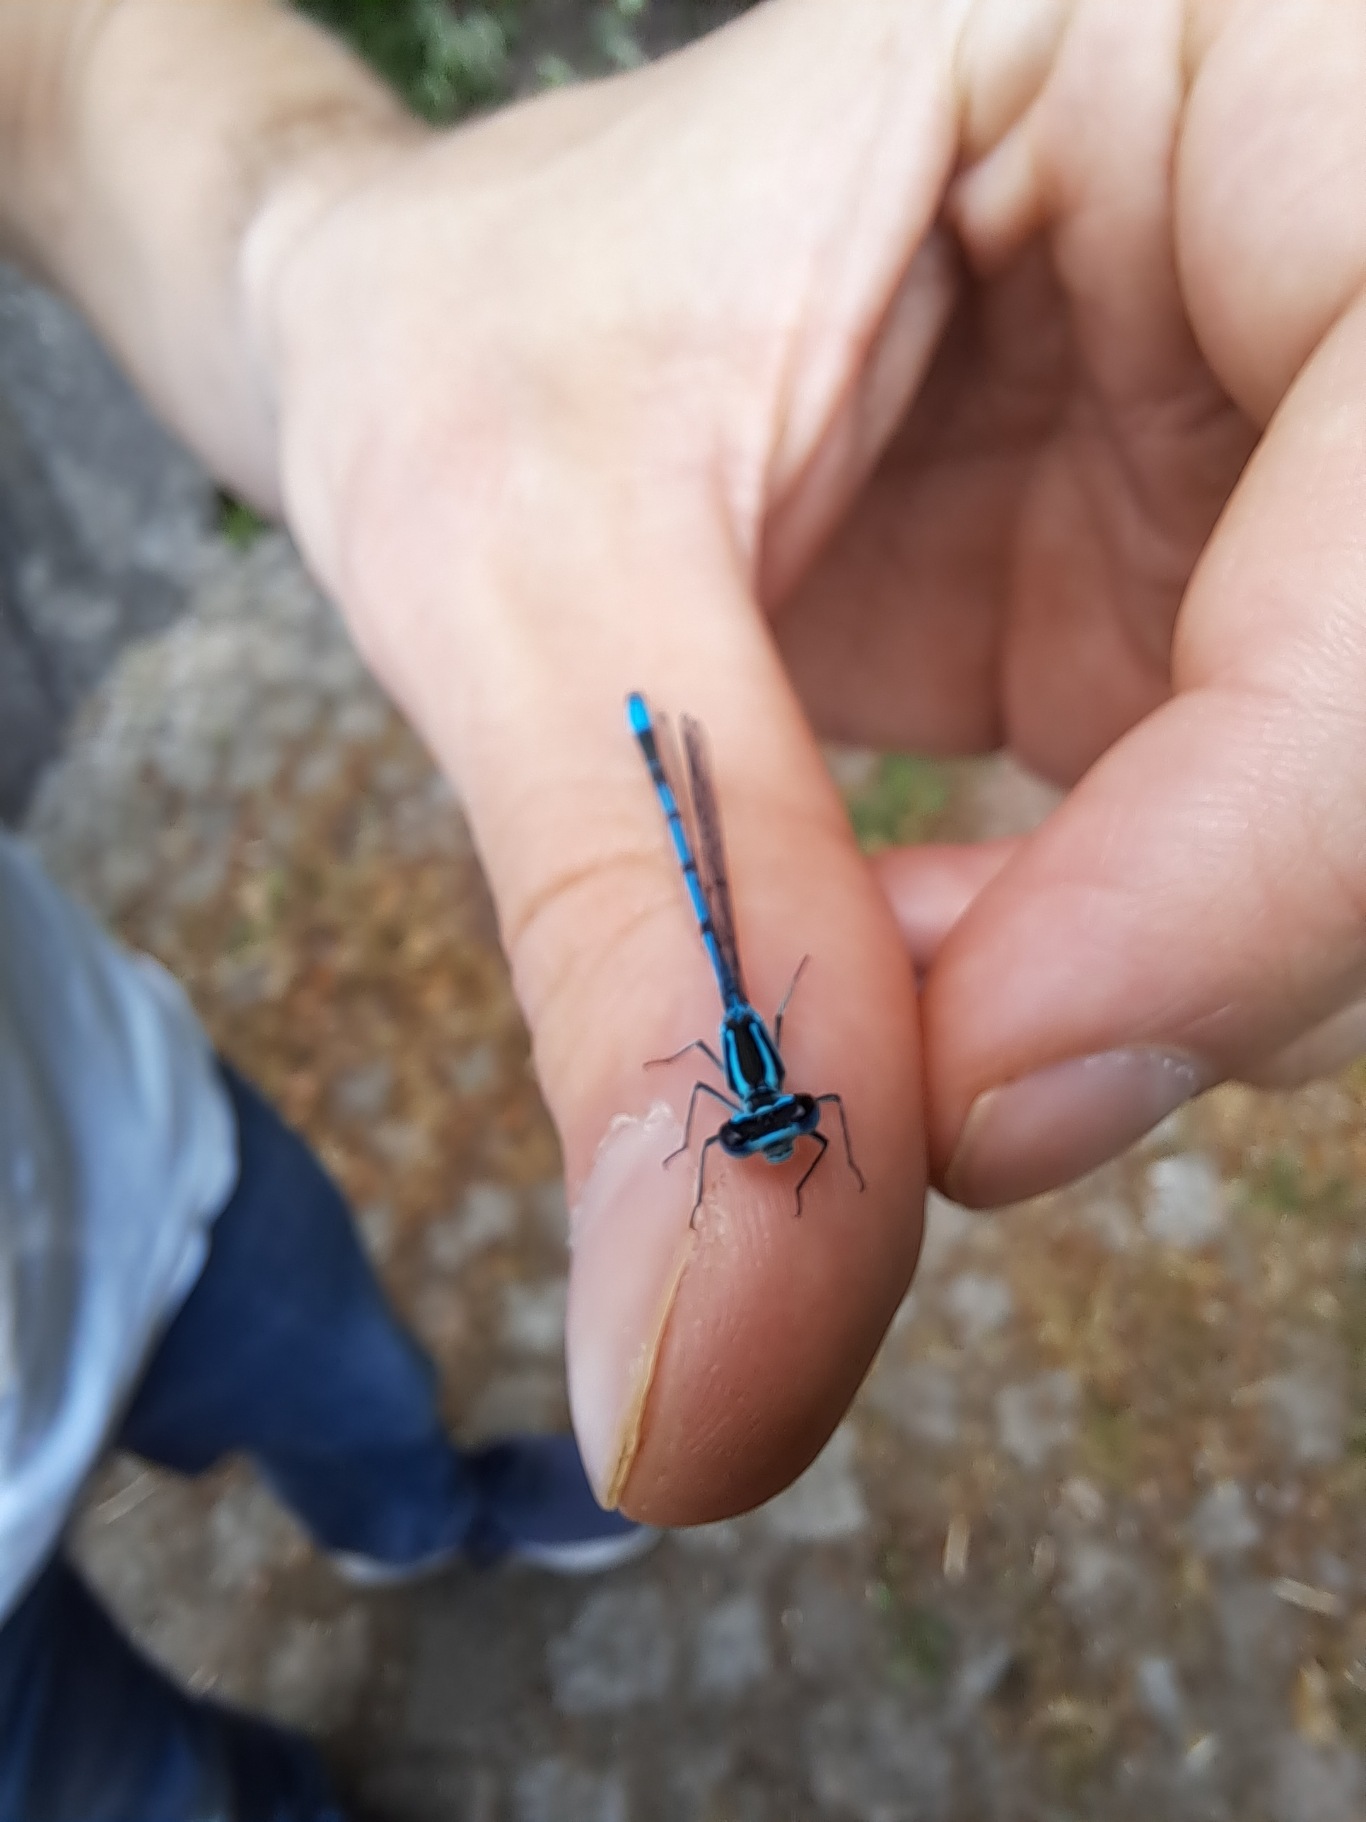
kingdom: Animalia
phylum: Arthropoda
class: Insecta
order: Odonata
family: Coenagrionidae
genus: Coenagrion
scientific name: Coenagrion puella
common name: Hestesko-vandnymfe
